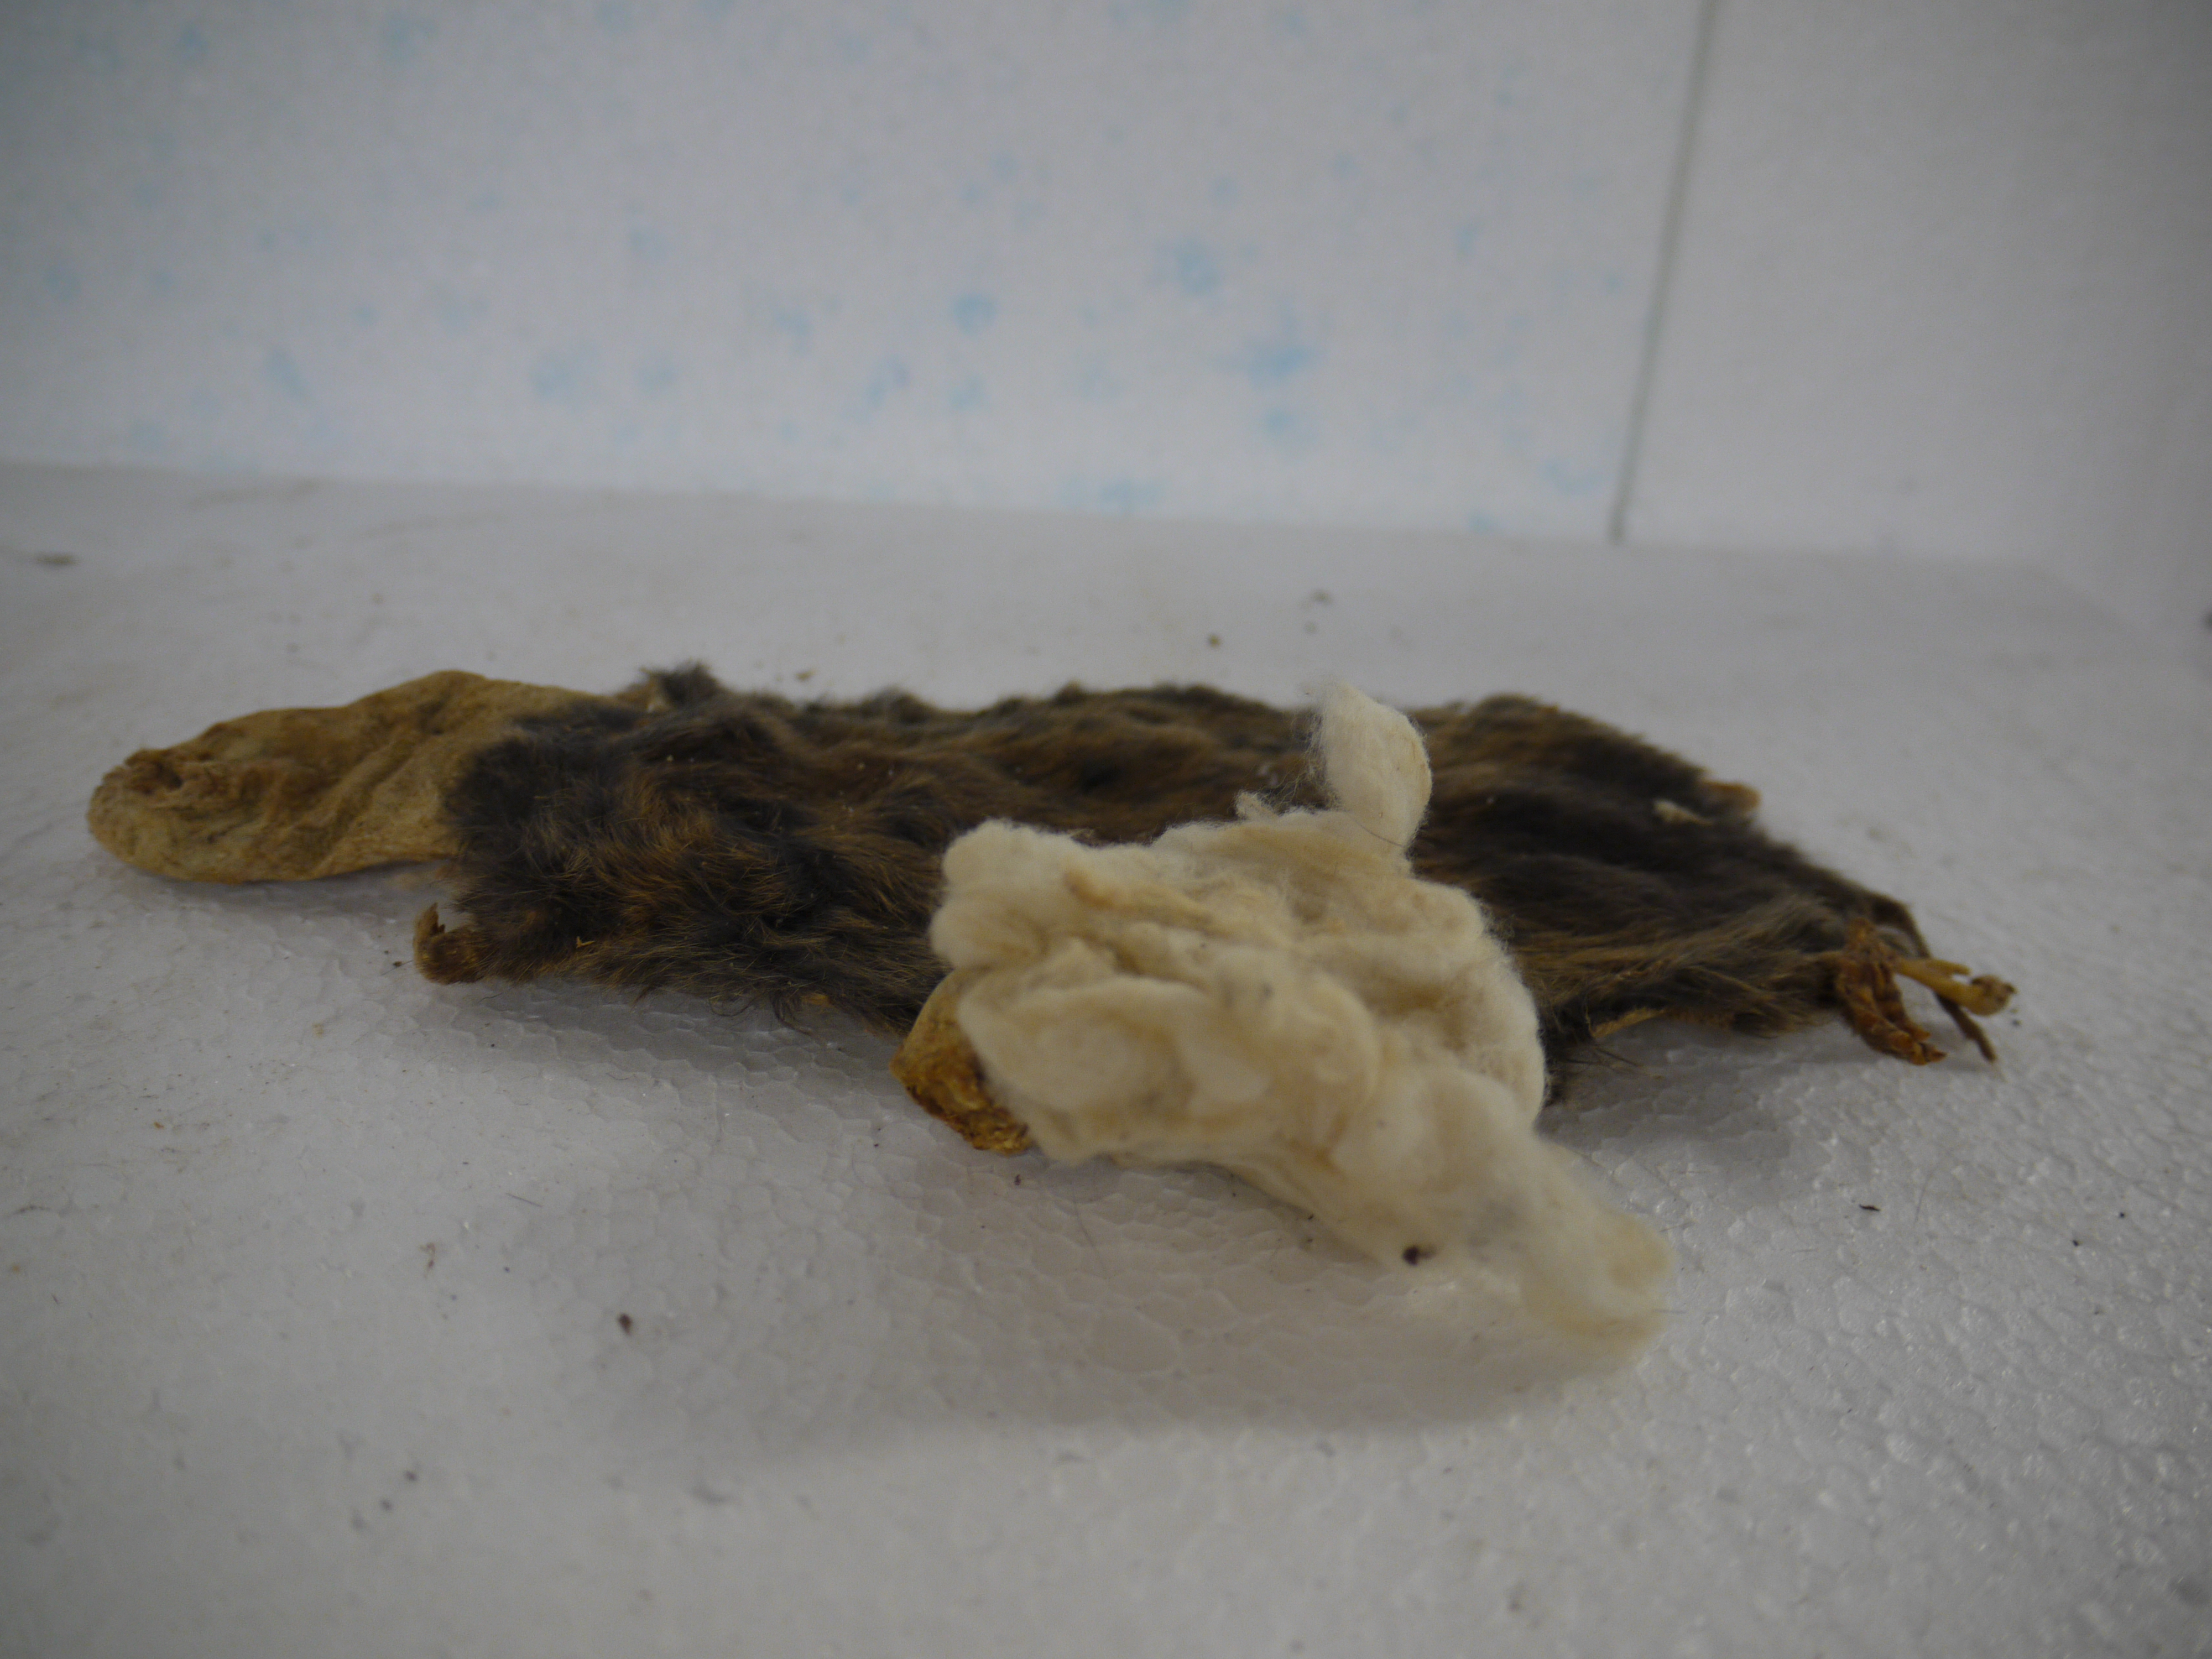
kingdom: Animalia
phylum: Chordata
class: Mammalia
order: Rodentia
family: Thryonomyidae
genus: Thryonomys
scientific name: Thryonomys gregorianus
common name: Lesser cane rat
